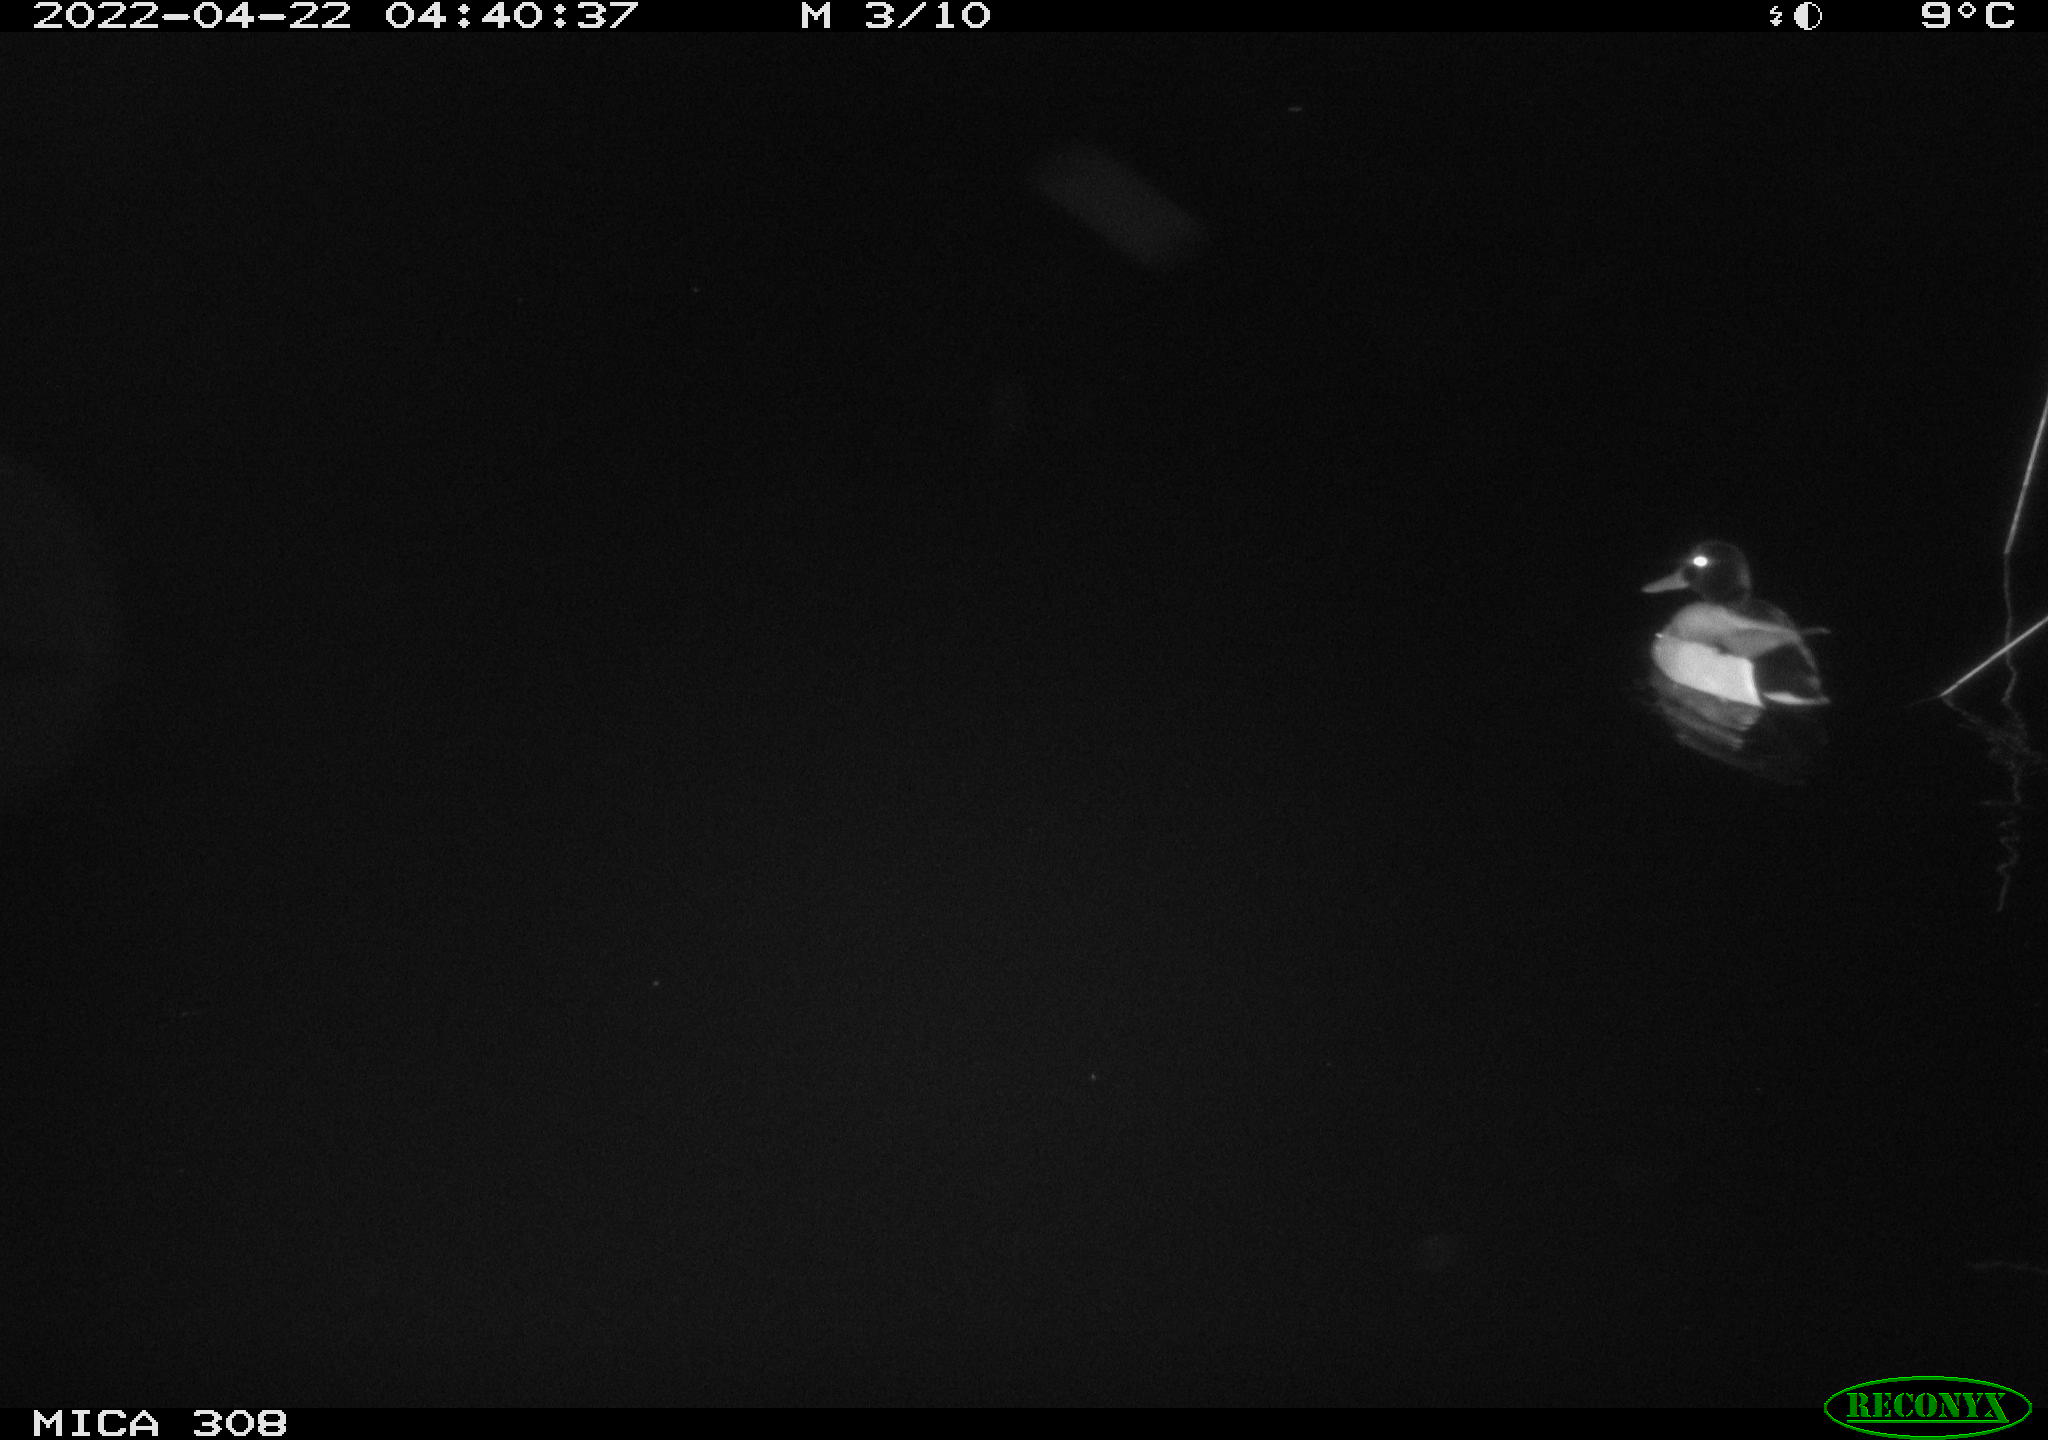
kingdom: Animalia
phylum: Chordata
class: Aves
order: Anseriformes
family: Anatidae
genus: Anas
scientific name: Anas platyrhynchos
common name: Mallard
